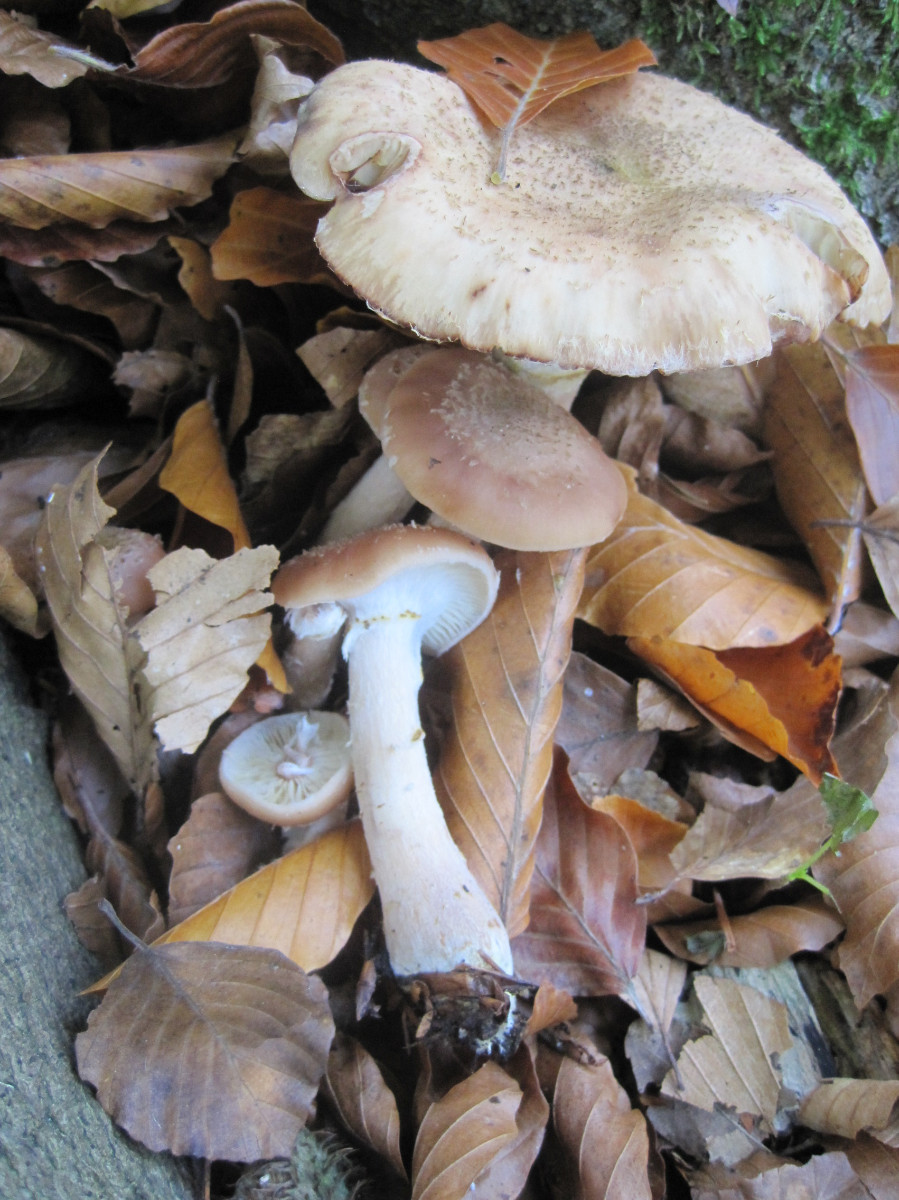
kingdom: Fungi
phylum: Basidiomycota
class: Agaricomycetes
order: Agaricales
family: Physalacriaceae
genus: Armillaria
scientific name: Armillaria lutea
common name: køllestokket honningsvamp
